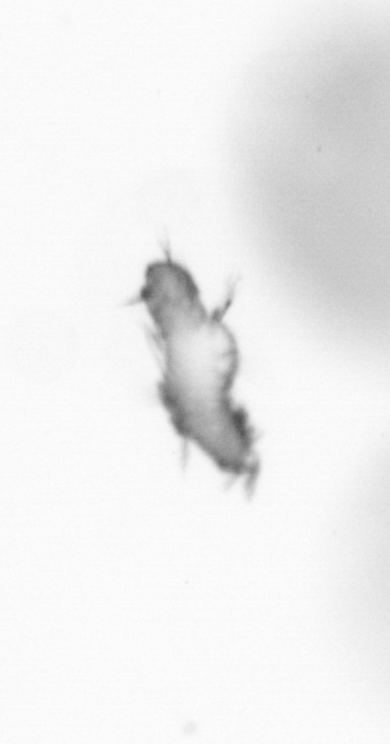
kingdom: Animalia
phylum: Annelida
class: Polychaeta
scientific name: Polychaeta
